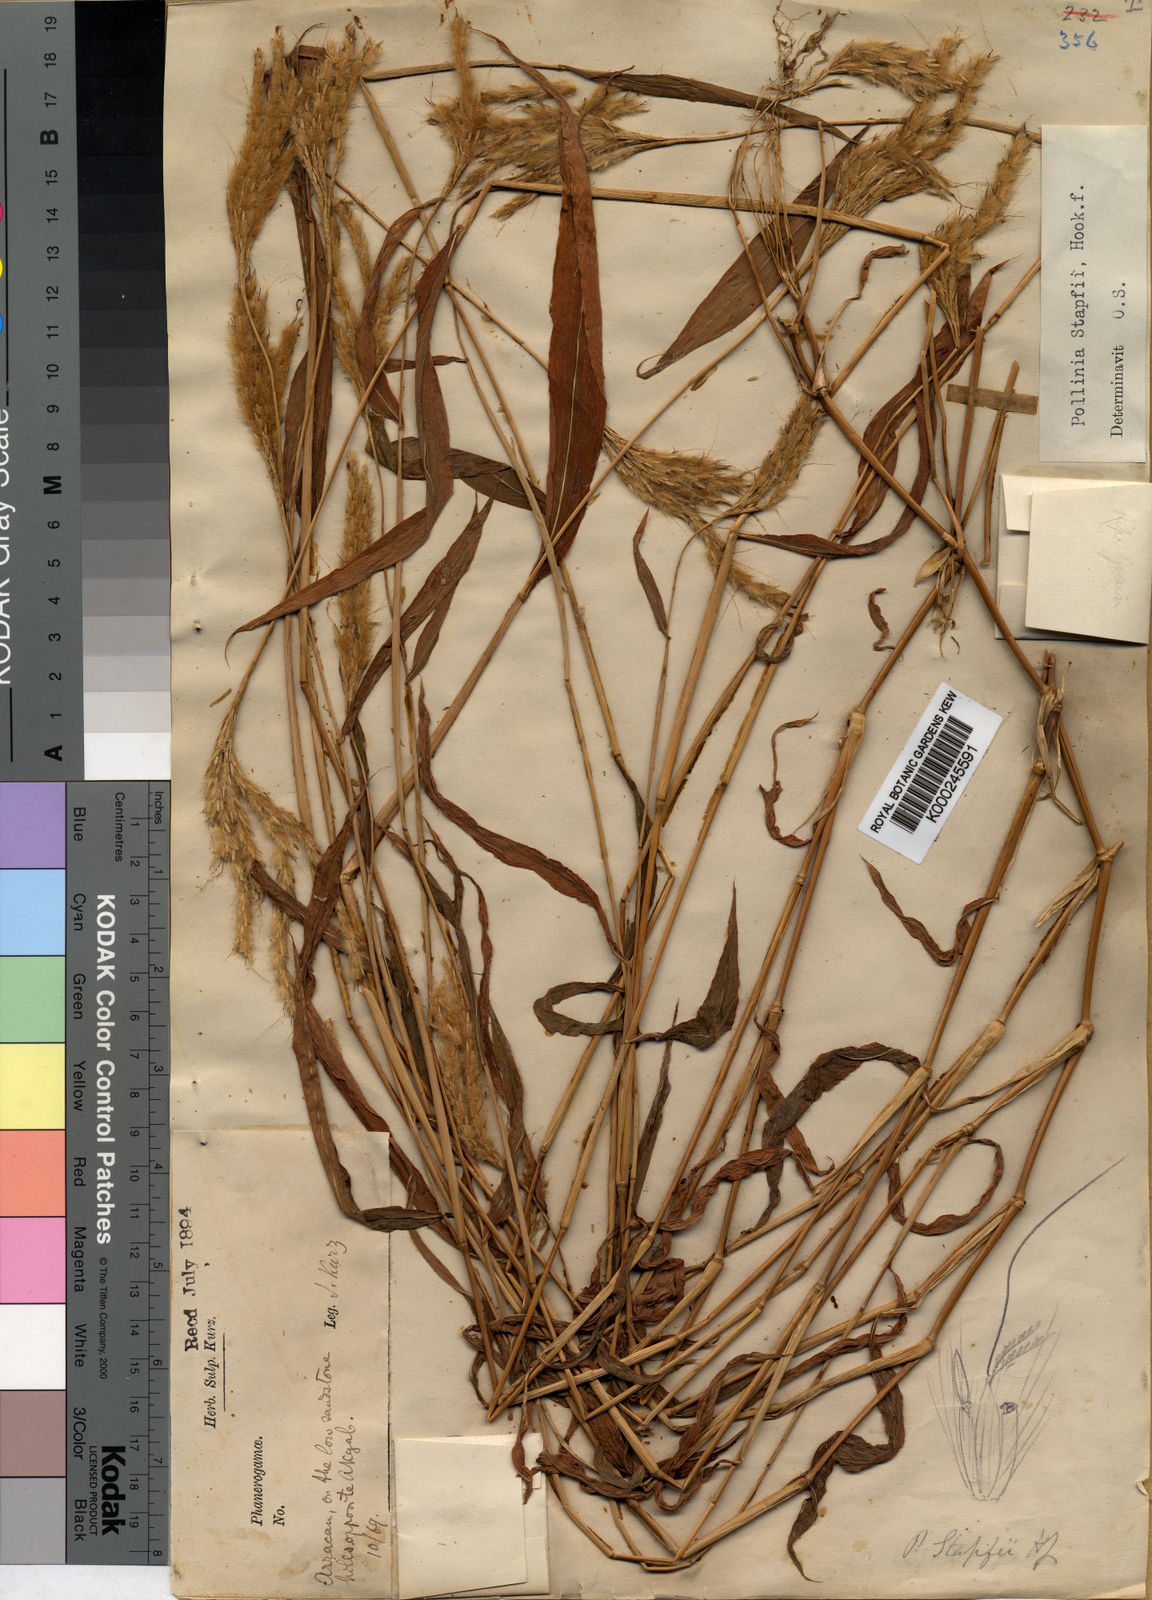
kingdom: Plantae
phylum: Tracheophyta
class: Liliopsida
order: Poales
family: Poaceae
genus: Microstegium
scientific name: Microstegium stapfii
